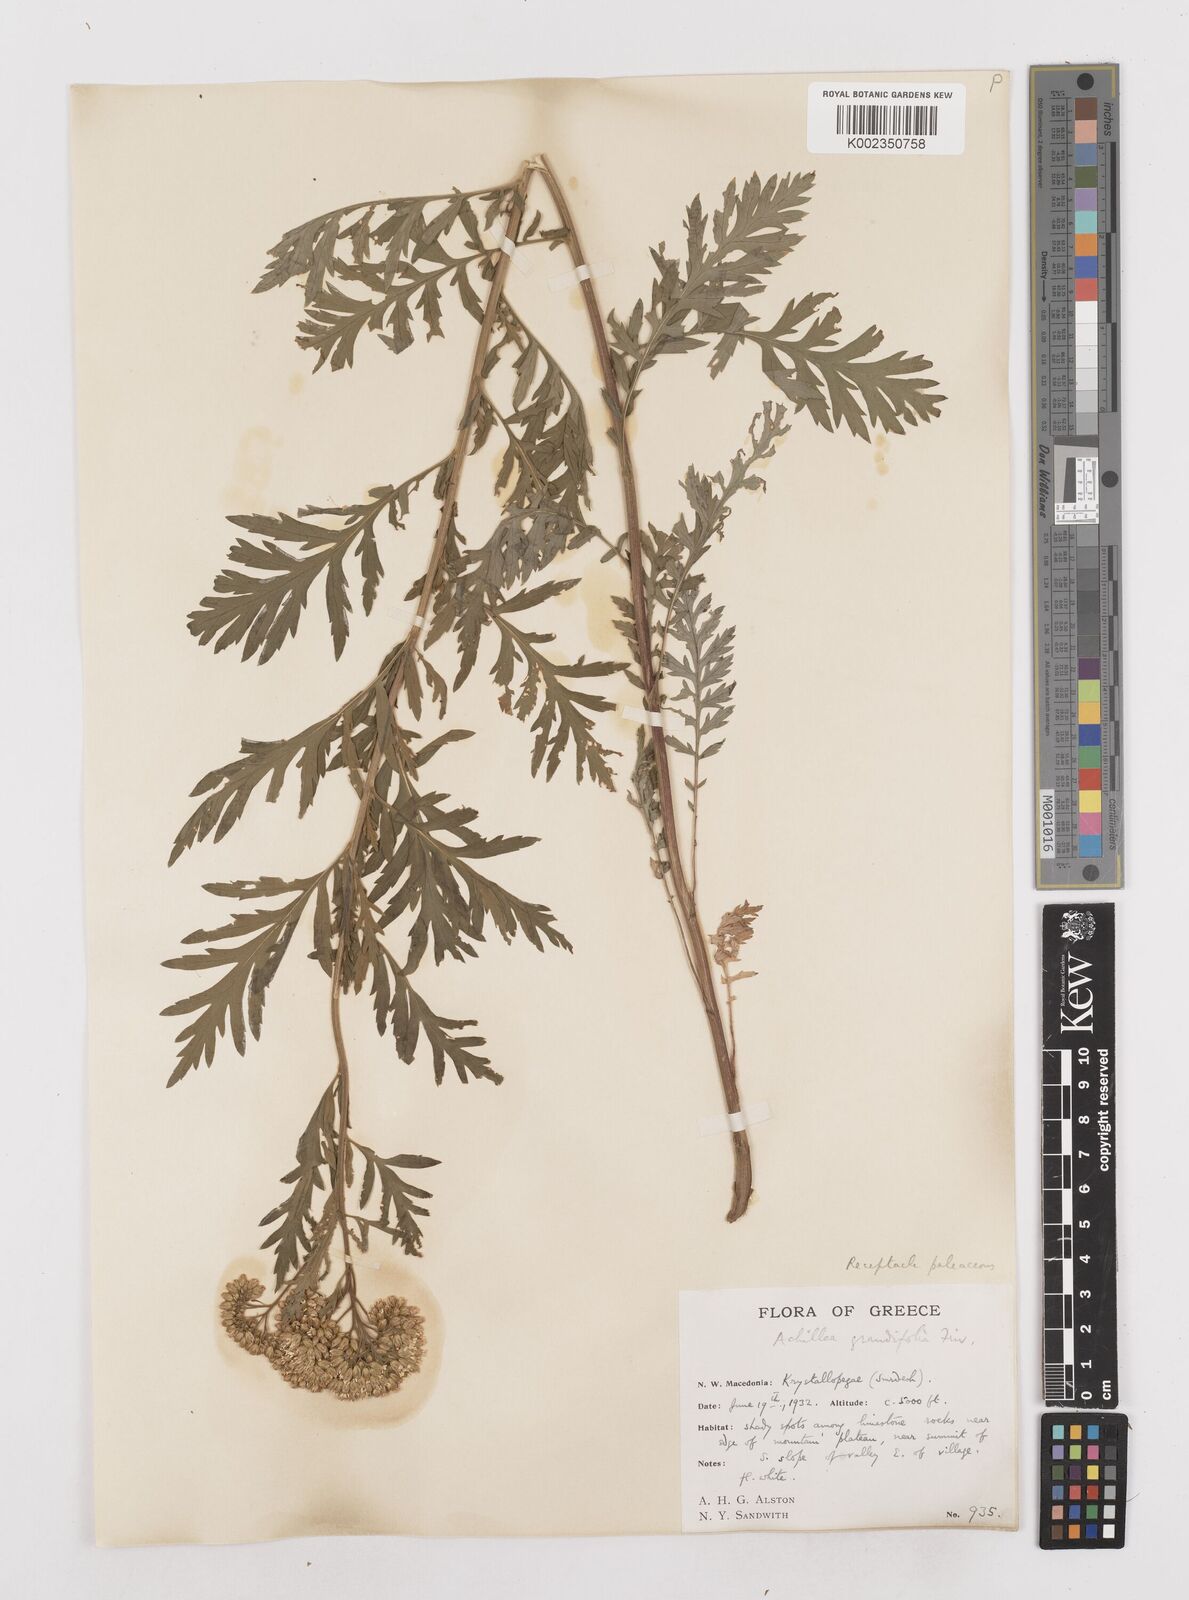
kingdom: Plantae
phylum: Tracheophyta
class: Magnoliopsida
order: Asterales
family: Asteraceae
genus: Achillea
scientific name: Achillea grandifolia
